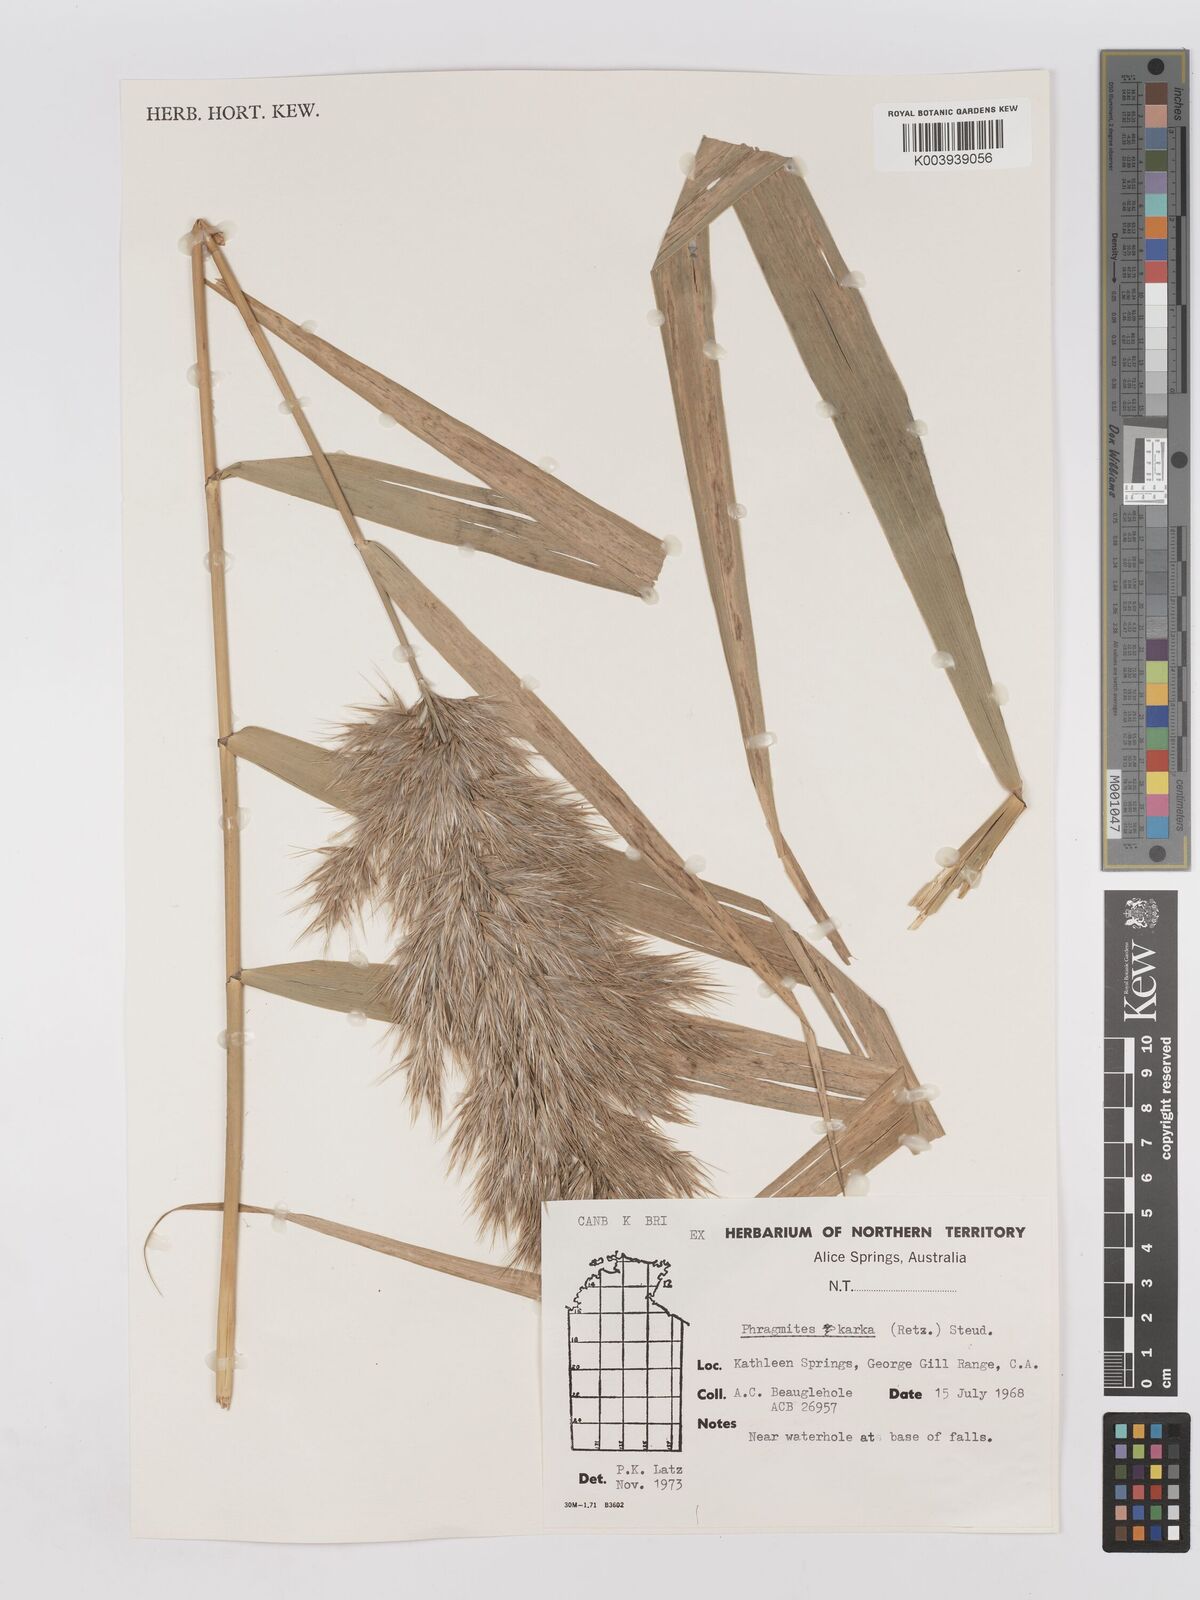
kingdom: Plantae
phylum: Tracheophyta
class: Liliopsida
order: Poales
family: Poaceae
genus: Phragmites
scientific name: Phragmites karka
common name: Tropical reed
